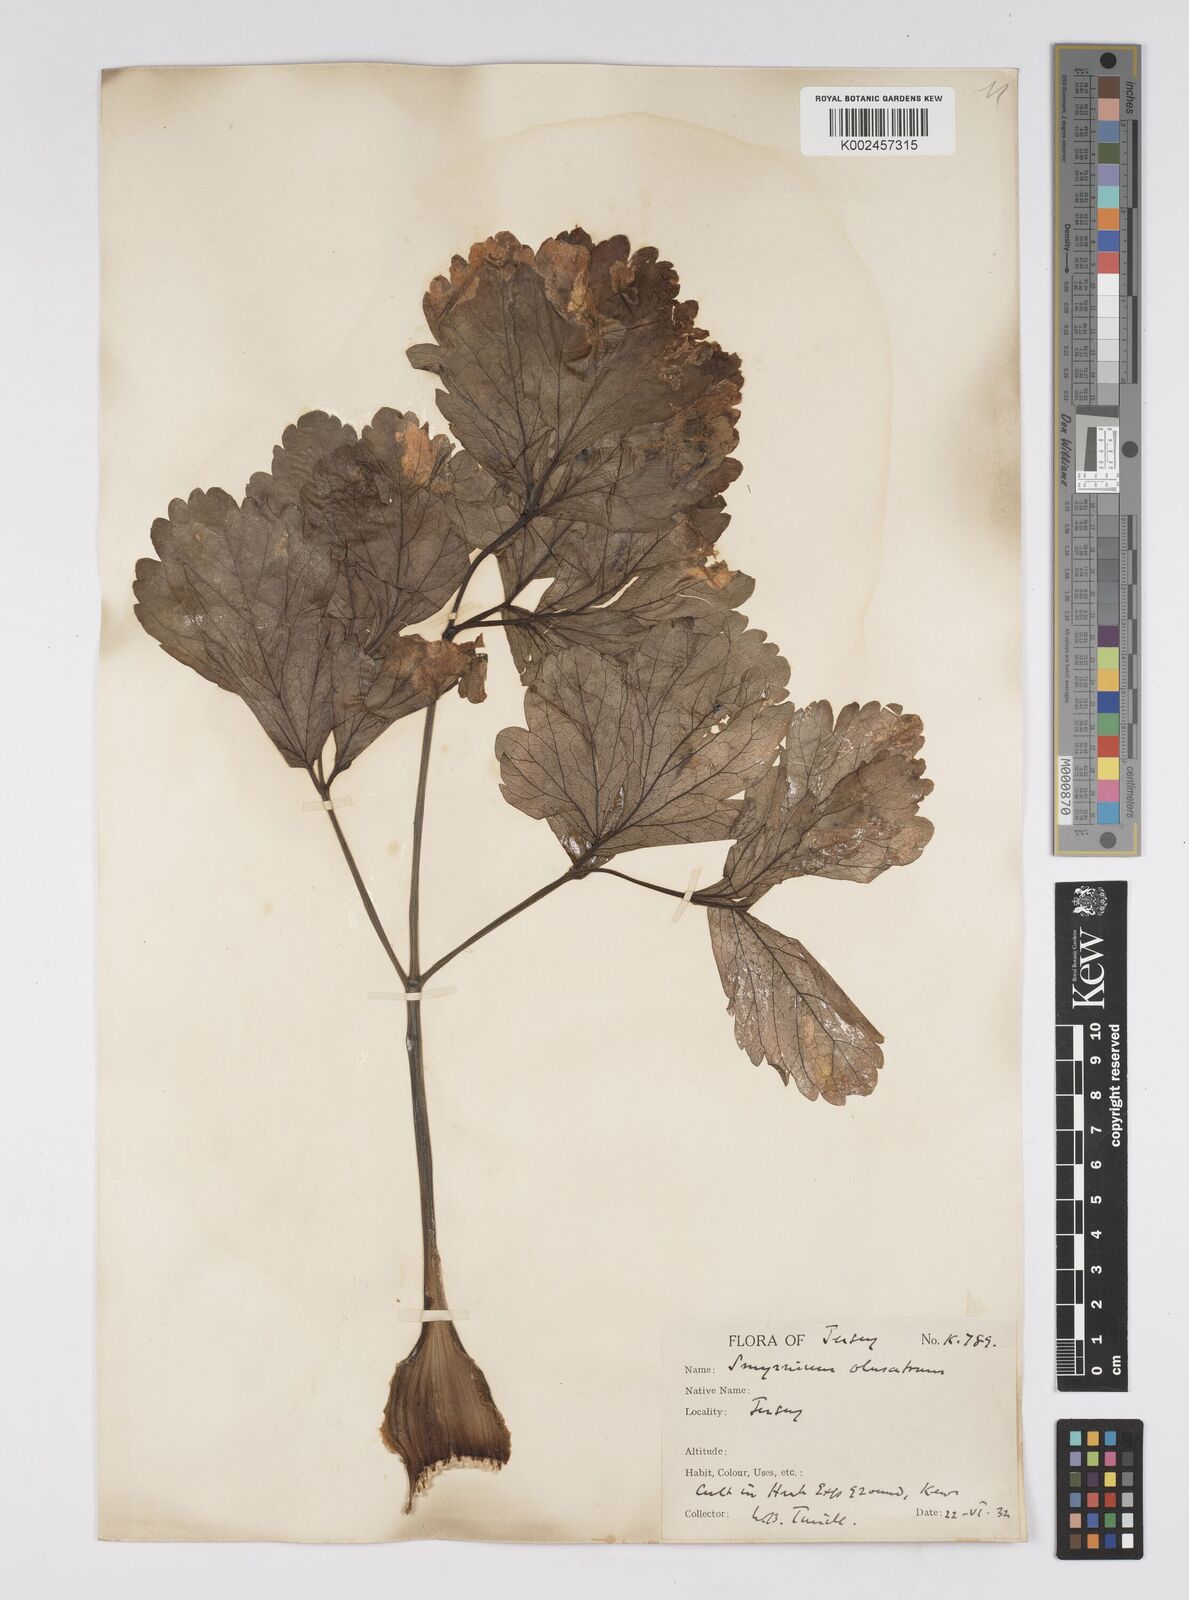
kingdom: Plantae
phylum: Tracheophyta
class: Magnoliopsida
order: Apiales
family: Apiaceae
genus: Smyrnium
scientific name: Smyrnium olusatrum
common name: Alexanders
